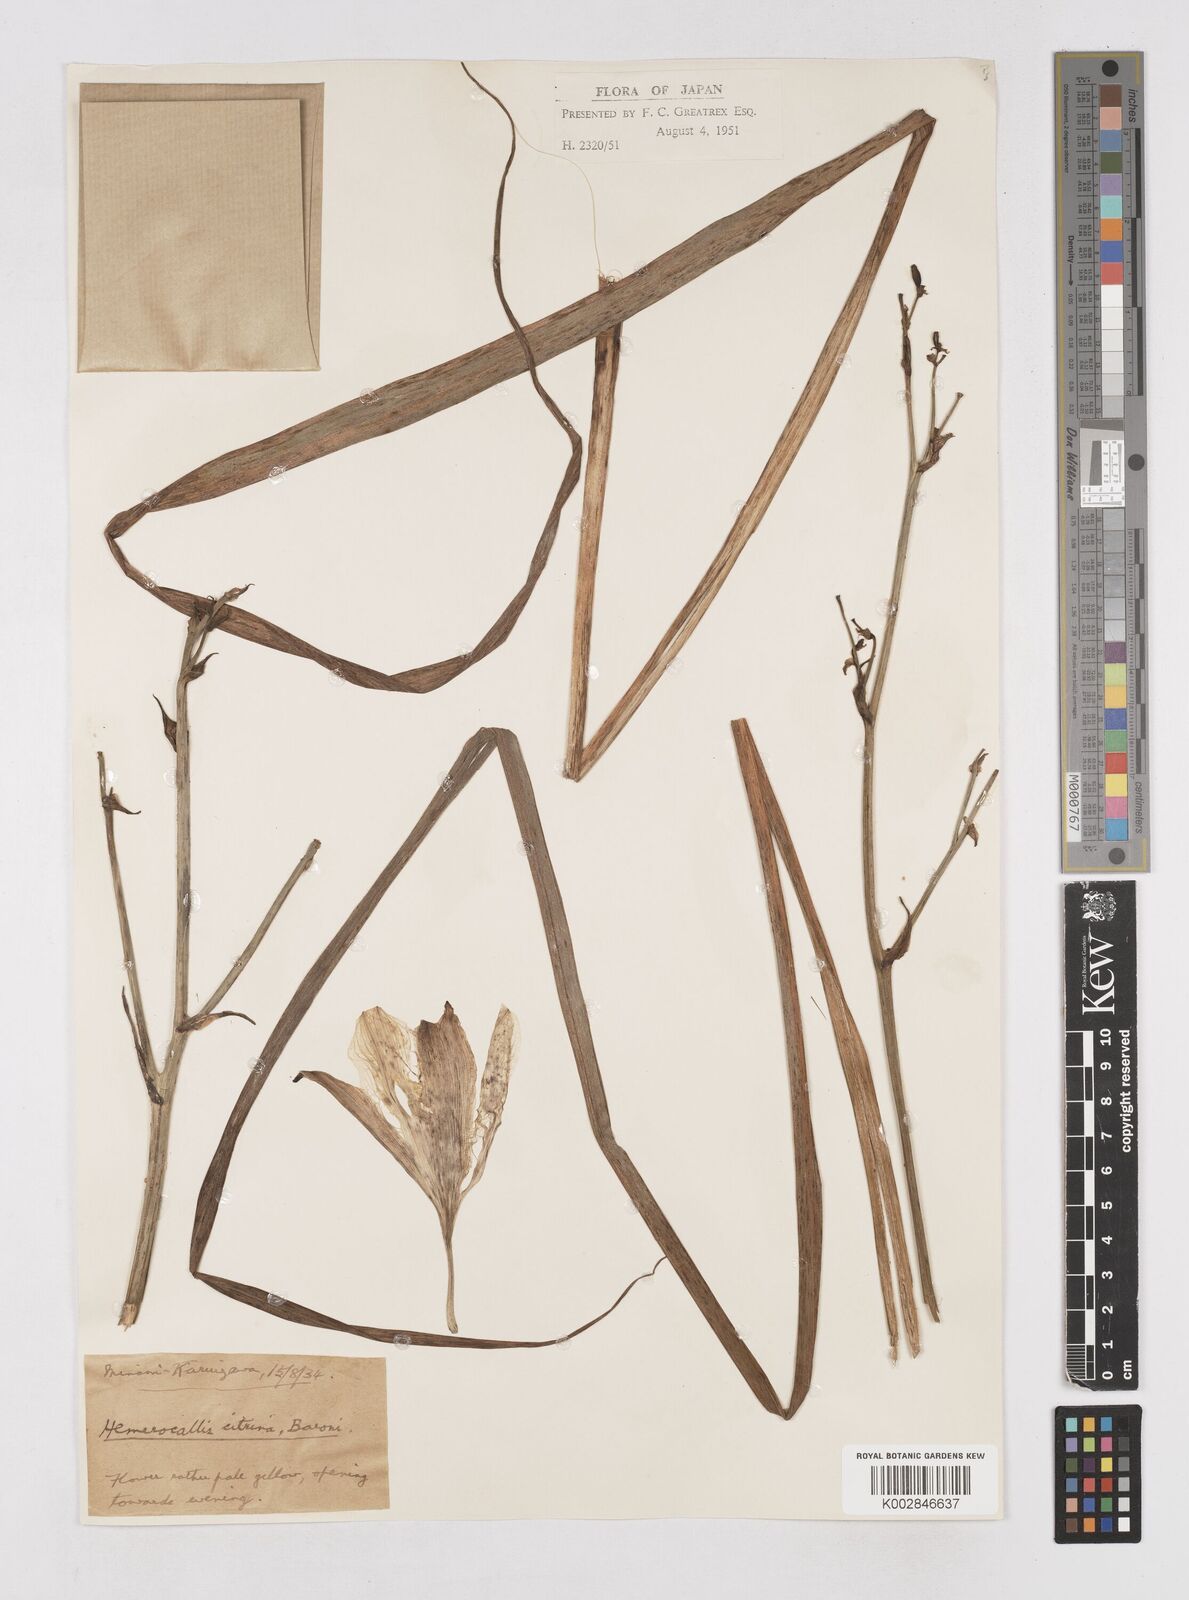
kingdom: Plantae
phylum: Tracheophyta
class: Liliopsida
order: Asparagales
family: Asphodelaceae
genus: Hemerocallis
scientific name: Hemerocallis citrina
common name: Citron day-lily
